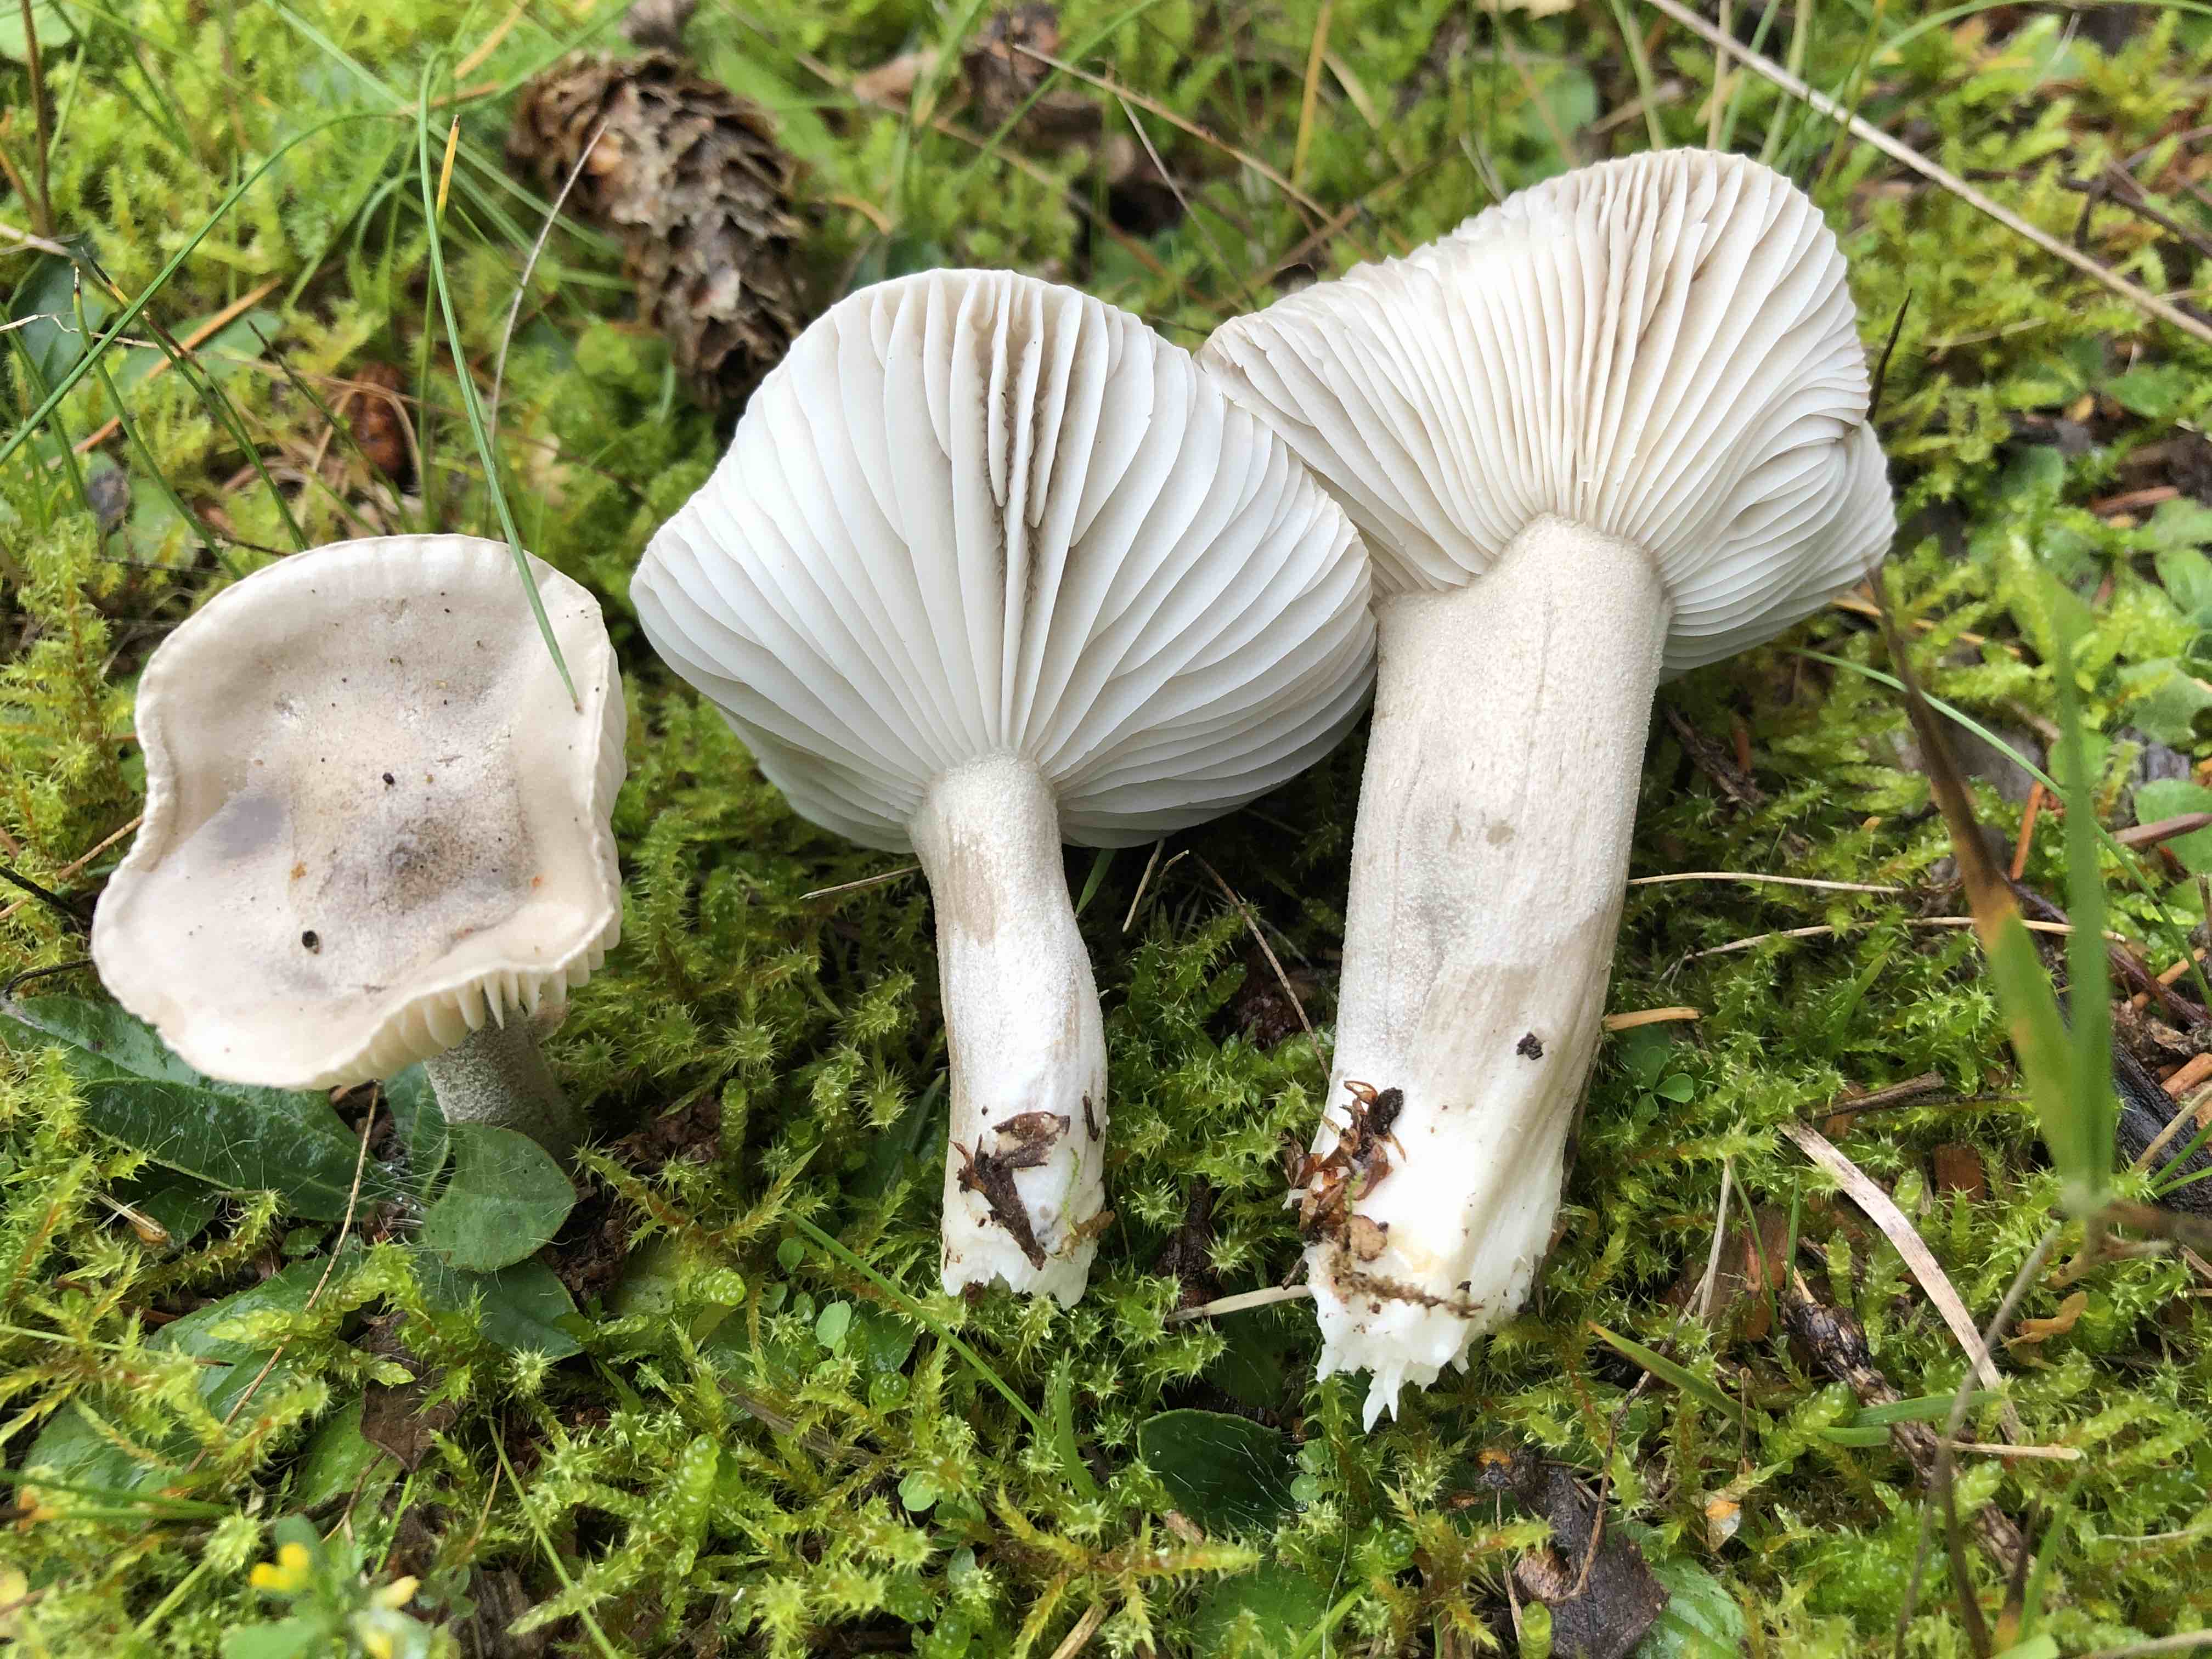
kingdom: Fungi
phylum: Basidiomycota
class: Agaricomycetes
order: Agaricales
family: Hygrophoraceae
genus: Hygrophorus
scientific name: Hygrophorus agathosmus
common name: vellugtende sneglehat
